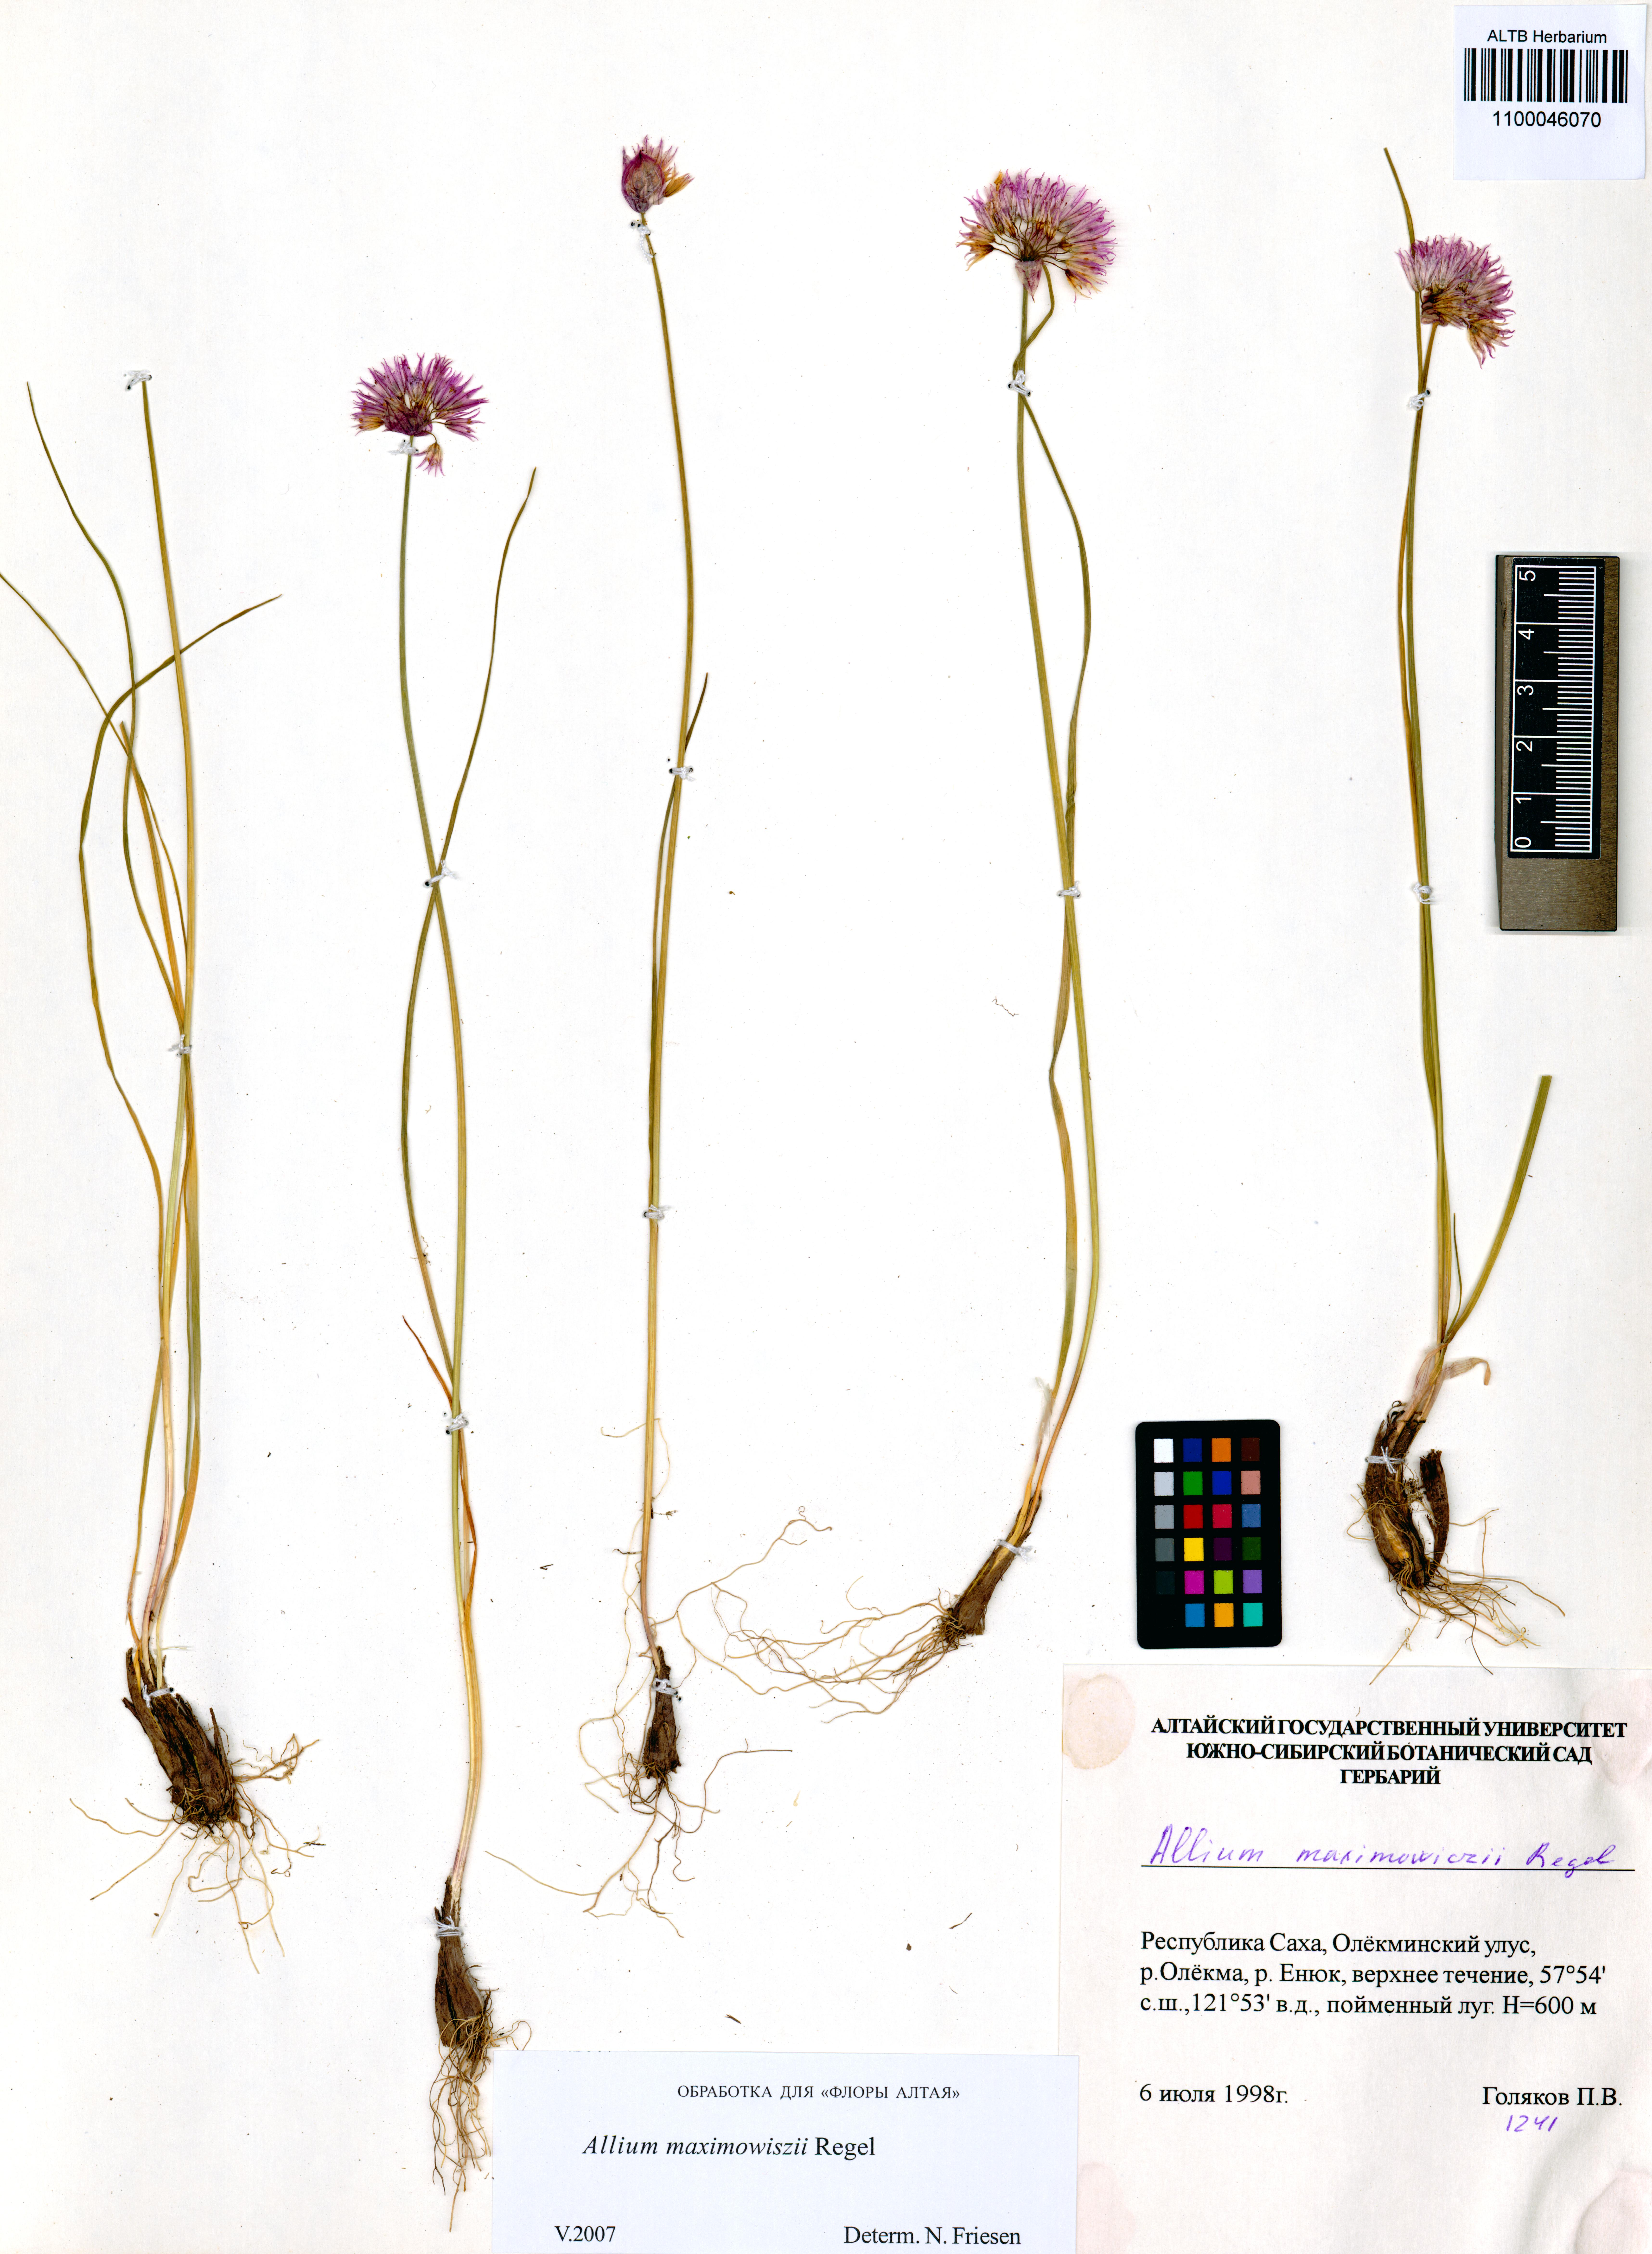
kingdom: Plantae
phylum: Tracheophyta
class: Liliopsida
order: Asparagales
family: Amaryllidaceae
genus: Allium
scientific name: Allium maximowiczii
